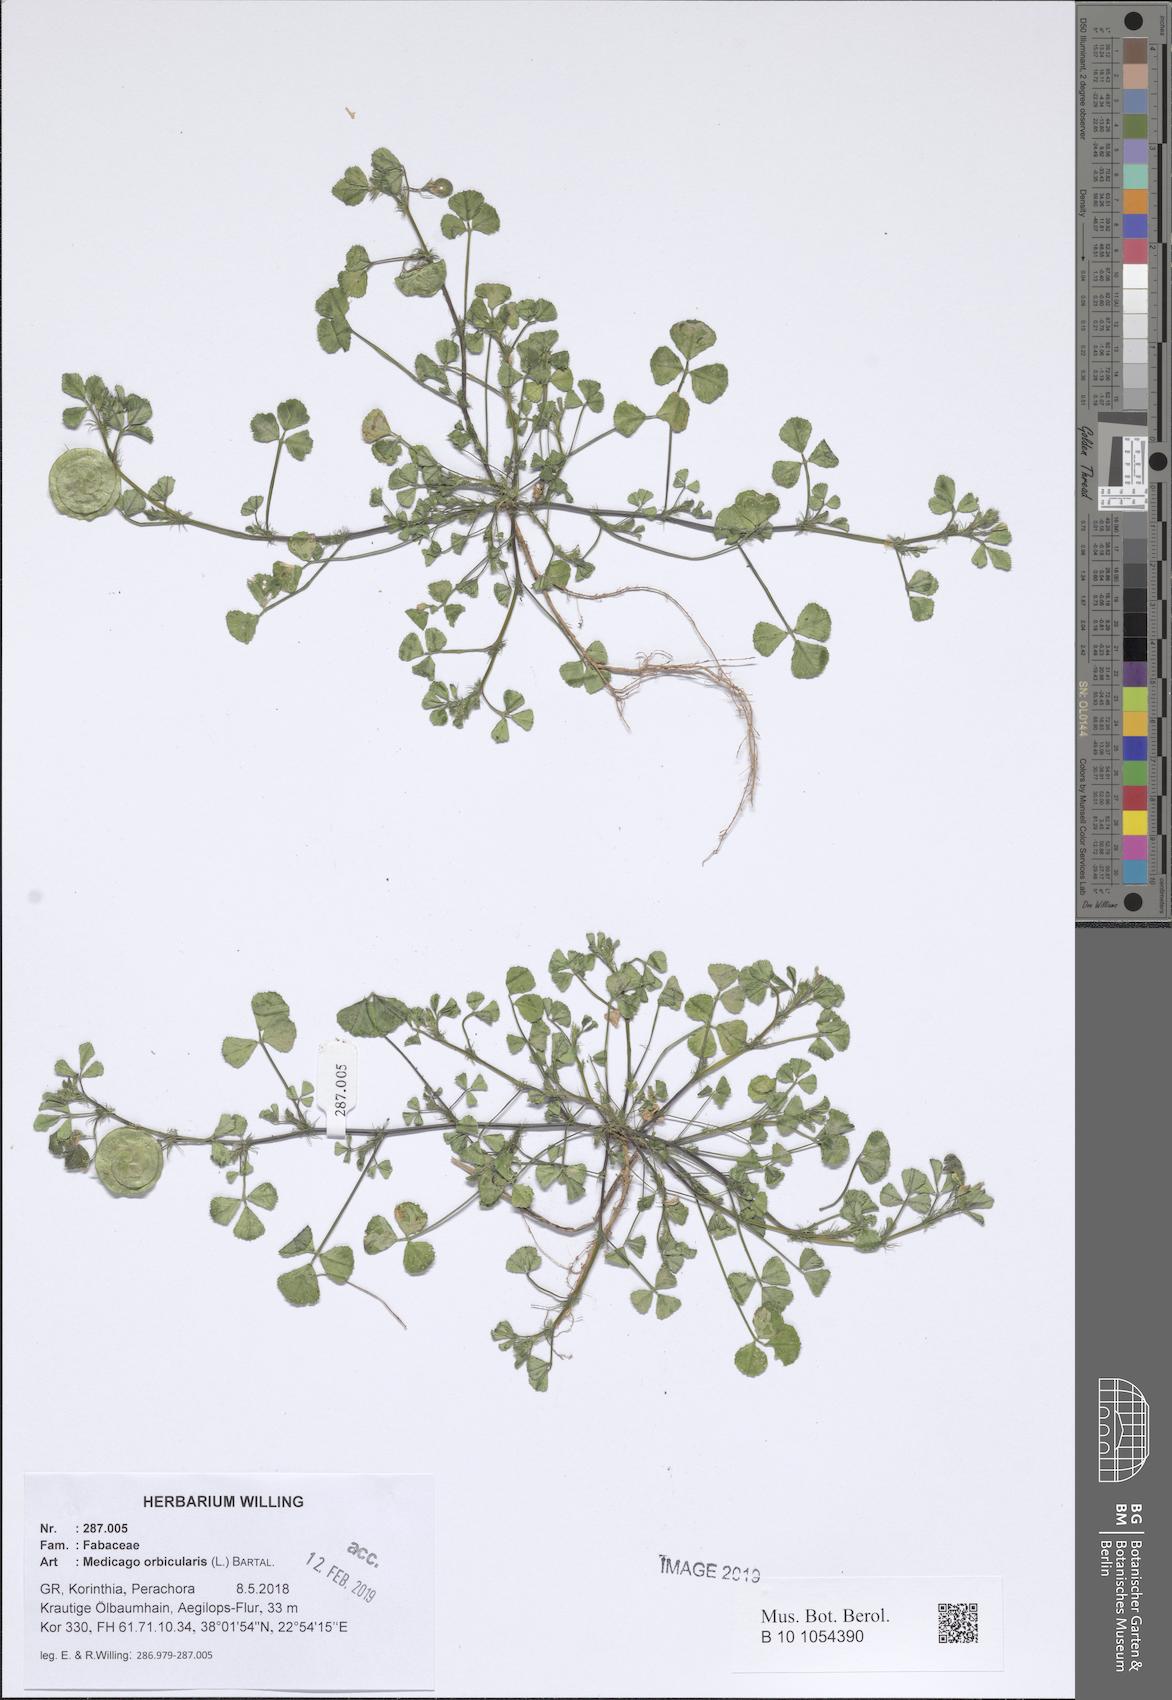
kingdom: Plantae
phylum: Tracheophyta
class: Magnoliopsida
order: Fabales
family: Fabaceae
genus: Medicago
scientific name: Medicago orbicularis
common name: Button medick
